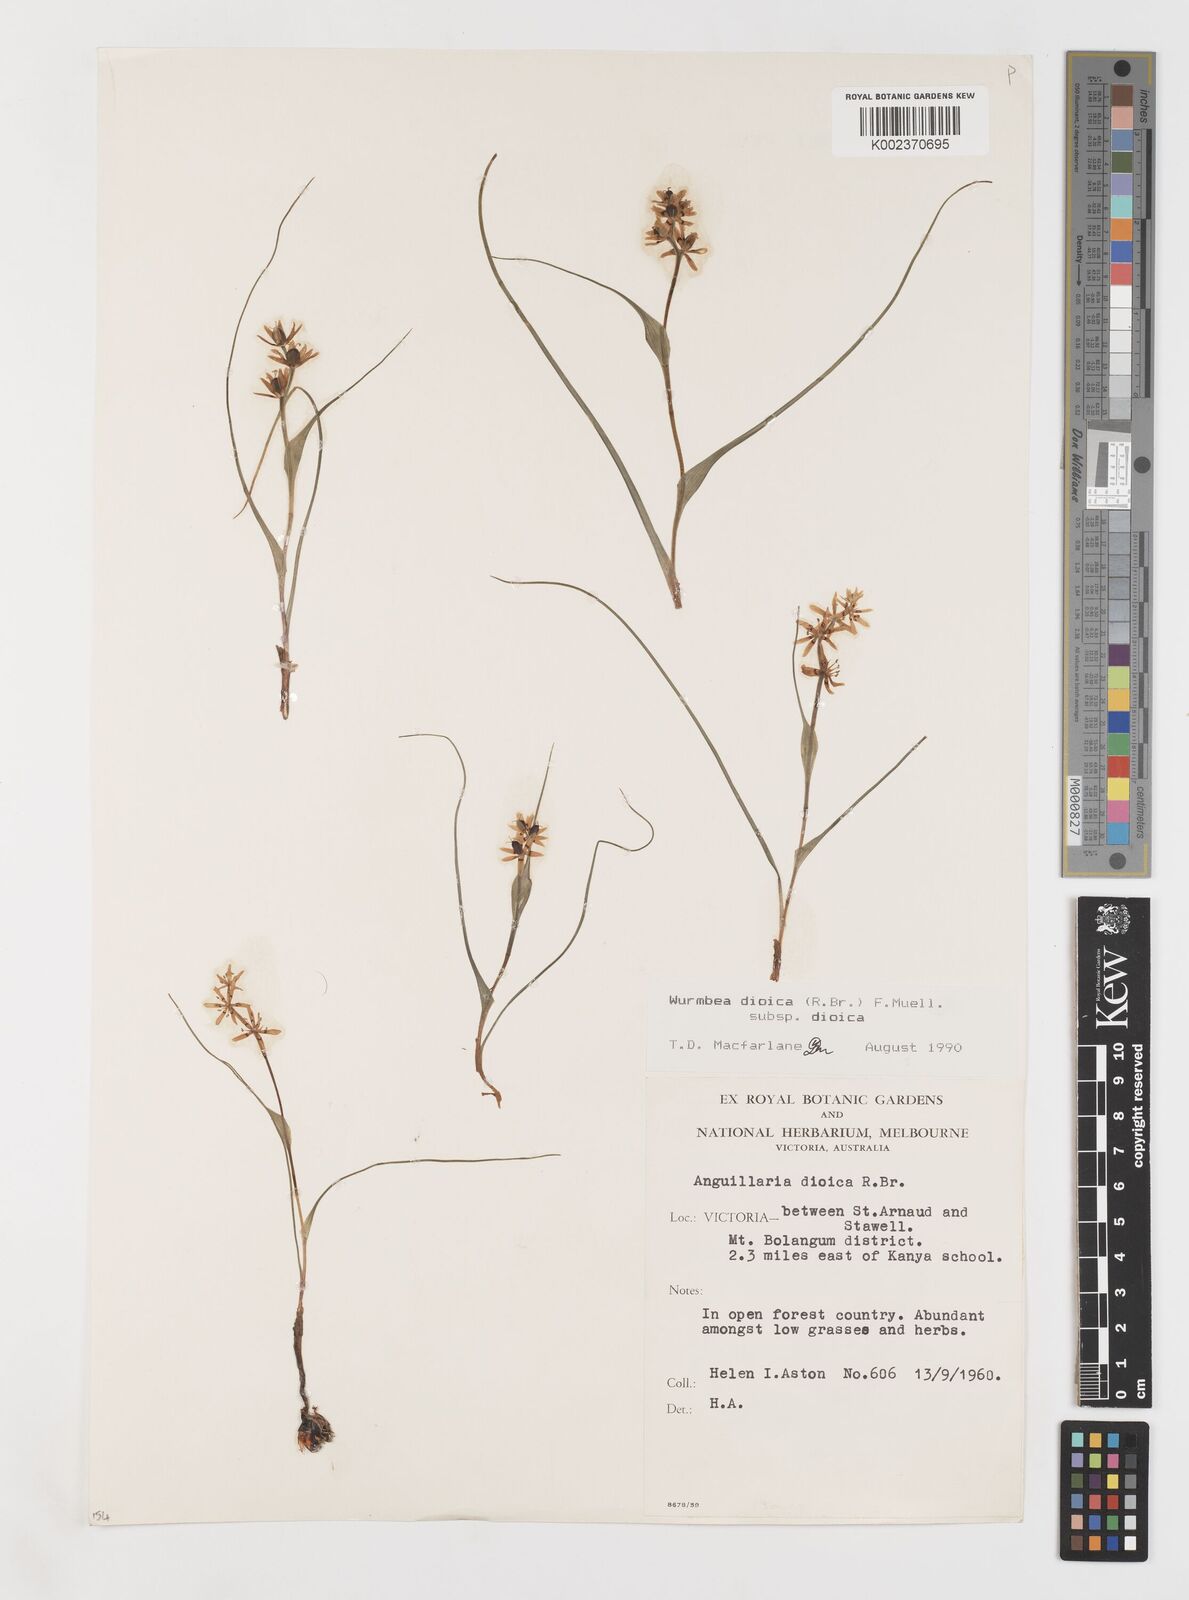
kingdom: Plantae
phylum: Tracheophyta
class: Liliopsida
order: Liliales
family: Colchicaceae
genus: Wurmbea
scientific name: Wurmbea dioica
